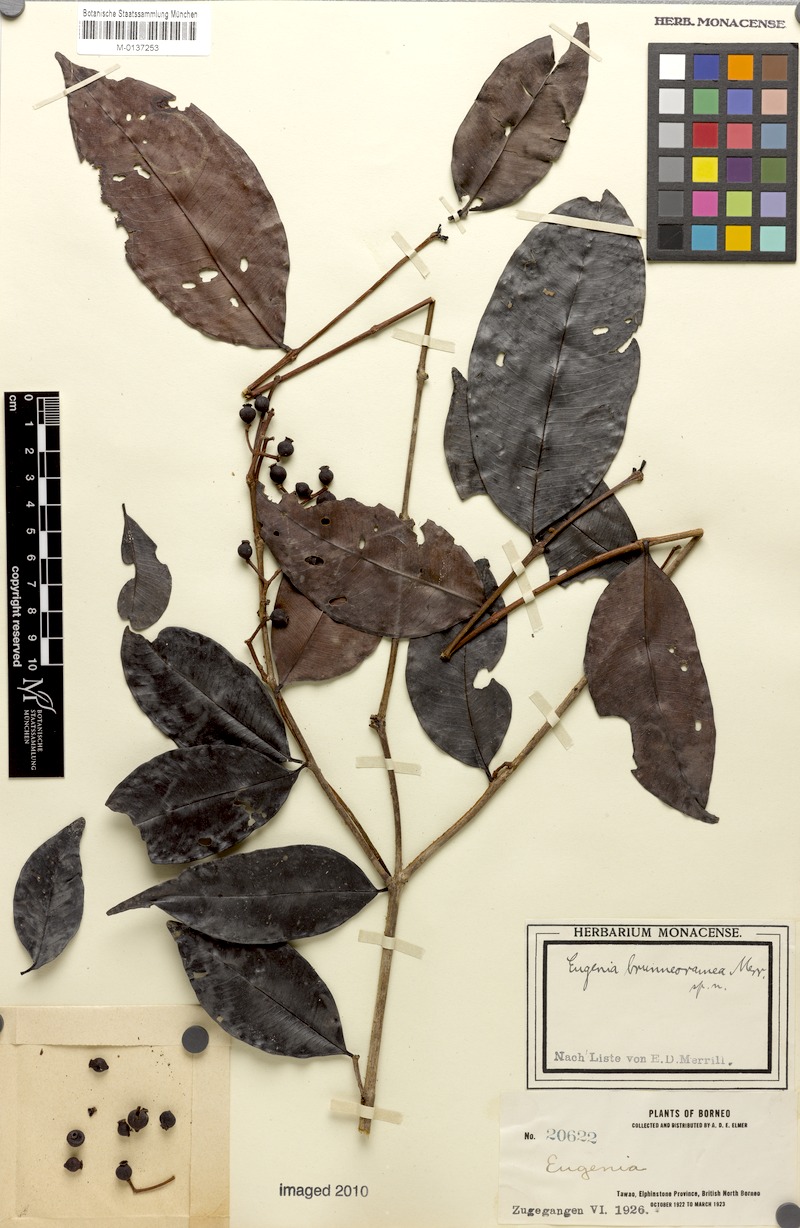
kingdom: Plantae
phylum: Tracheophyta
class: Magnoliopsida
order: Myrtales
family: Myrtaceae
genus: Syzygium
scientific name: Syzygium racemosum
